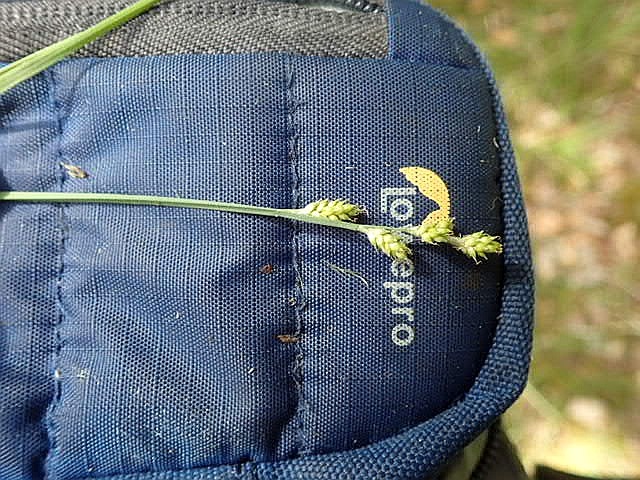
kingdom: Plantae
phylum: Tracheophyta
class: Liliopsida
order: Poales
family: Cyperaceae
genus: Carex
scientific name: Carex canescens
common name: Grå star
